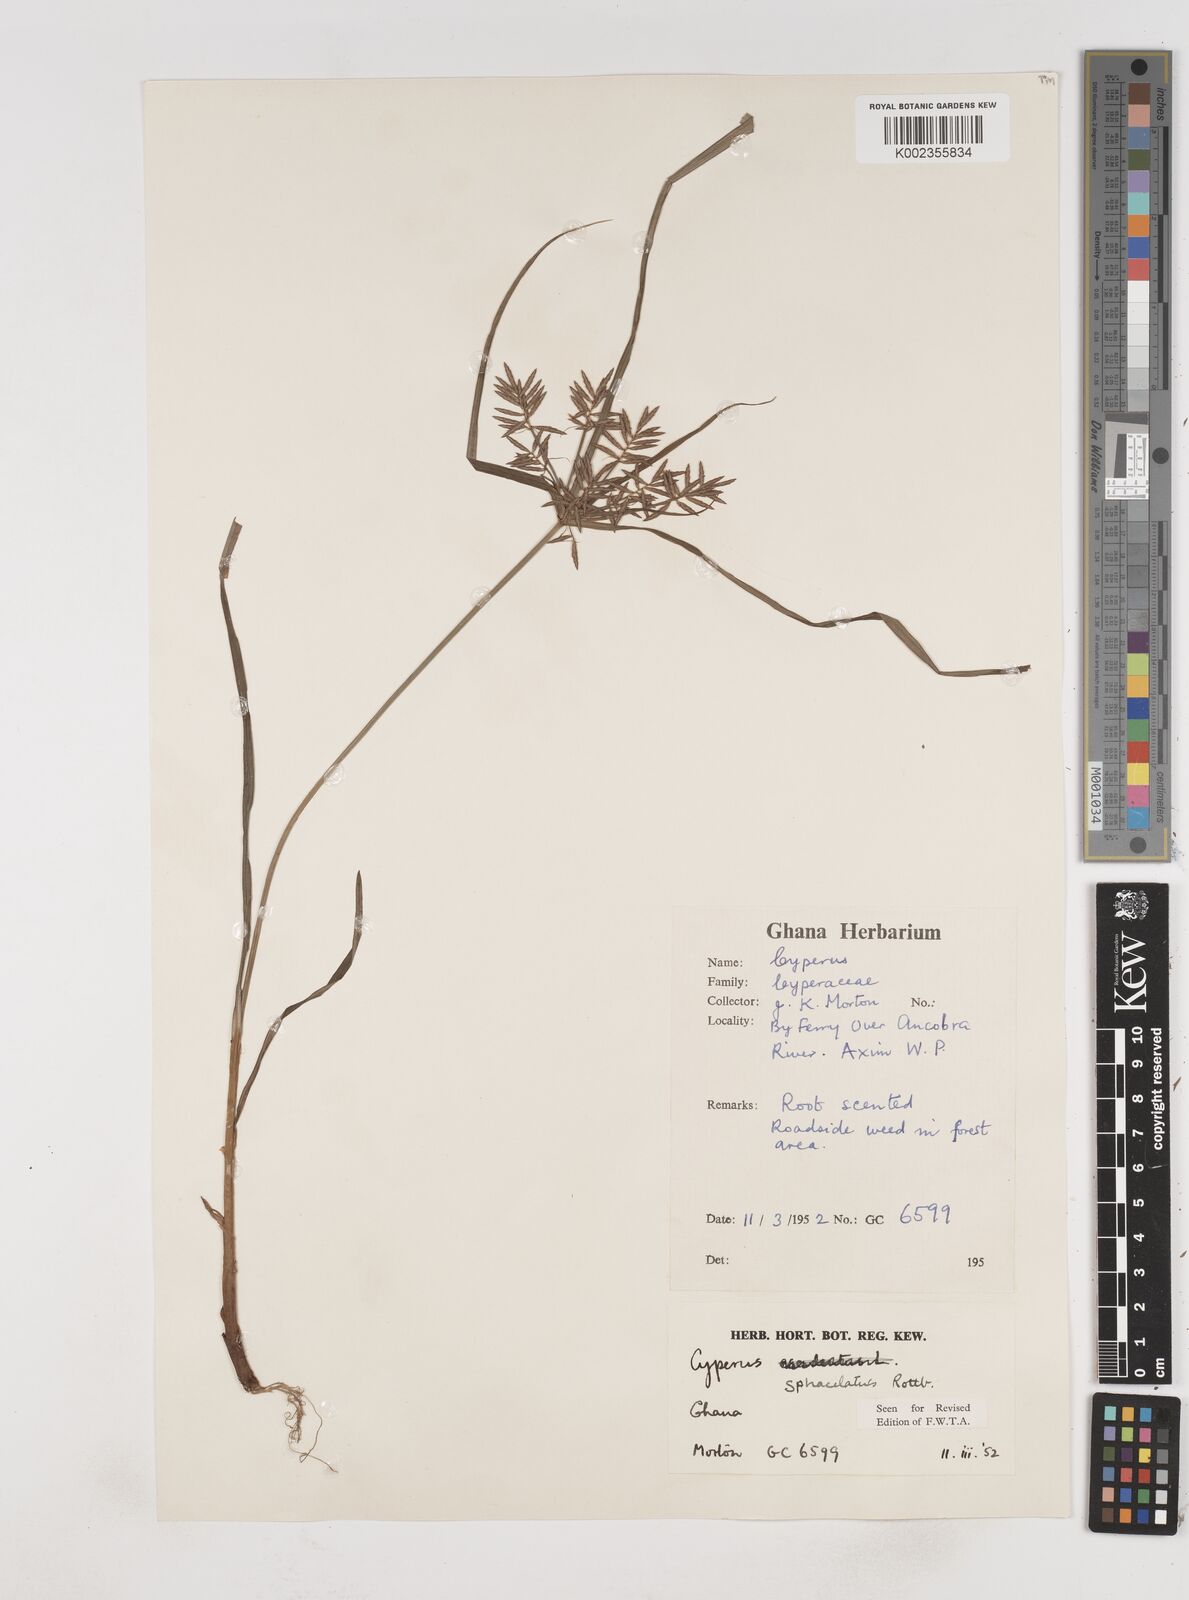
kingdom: Plantae
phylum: Tracheophyta
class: Liliopsida
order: Poales
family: Cyperaceae
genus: Cyperus
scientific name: Cyperus sphacelatus
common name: Roadside flatsedge
